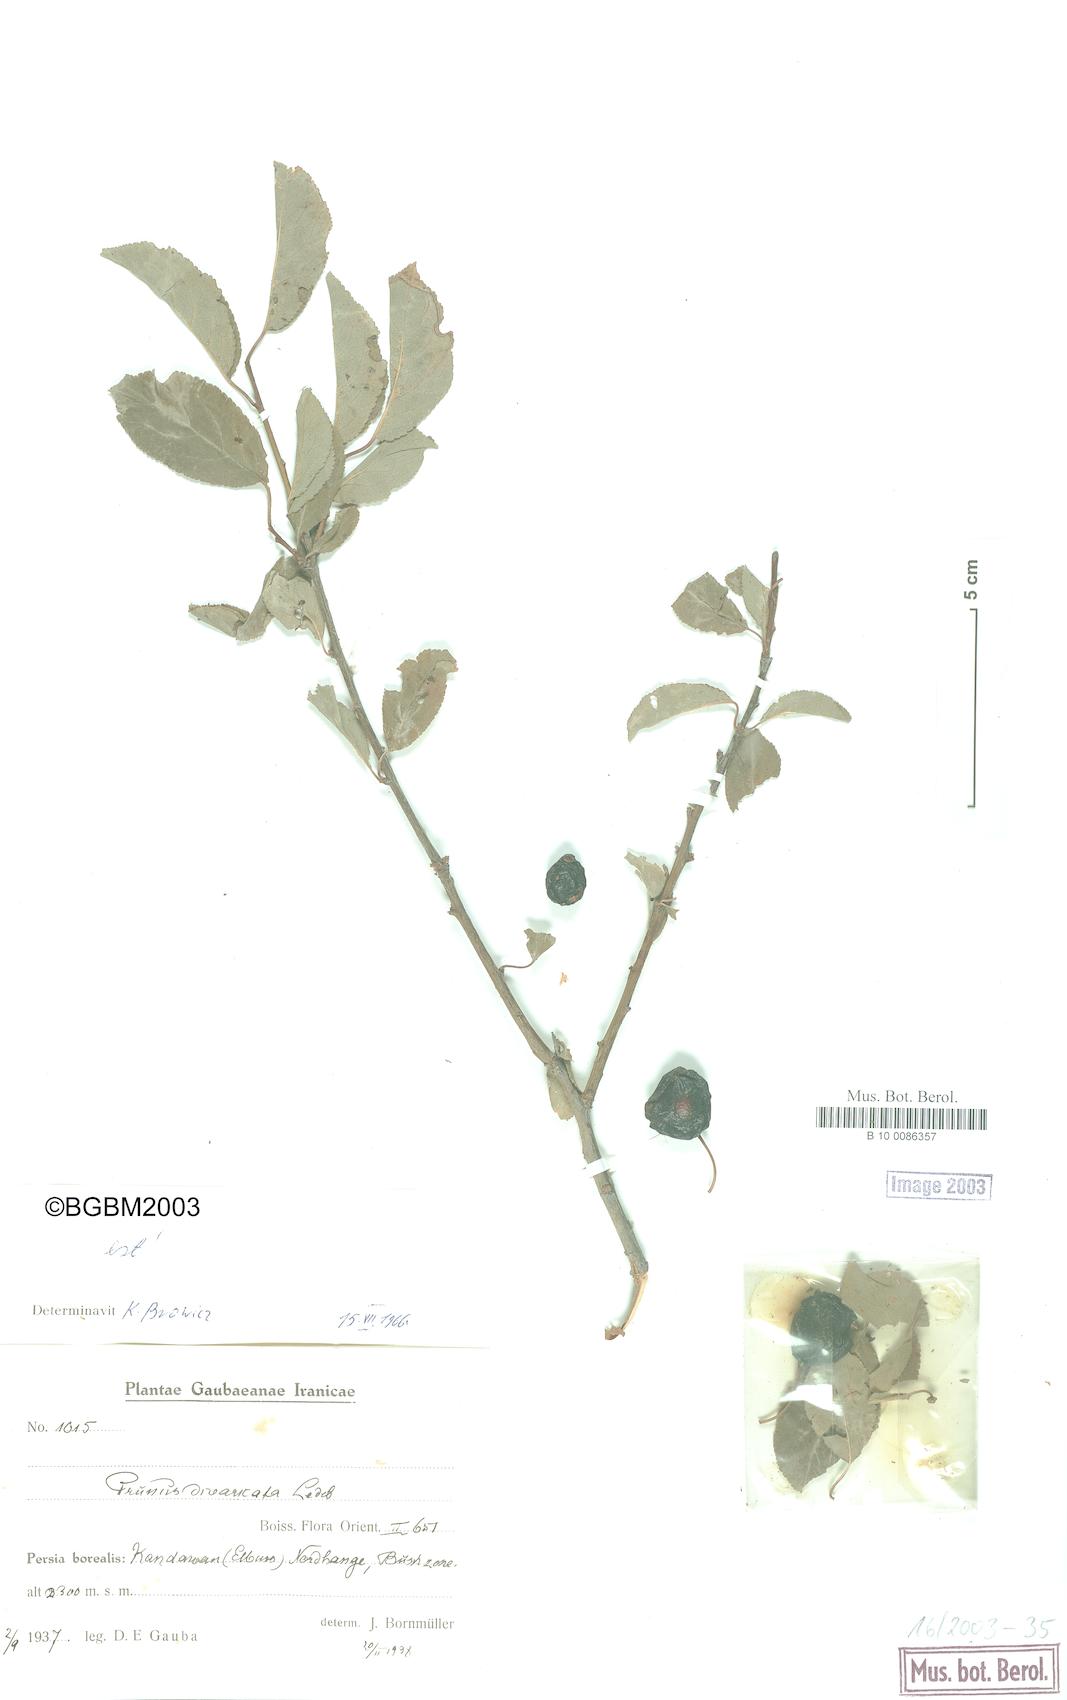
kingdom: Plantae
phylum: Tracheophyta
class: Magnoliopsida
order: Rosales
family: Rosaceae
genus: Prunus
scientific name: Prunus cerasifera
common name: Cherry plum
